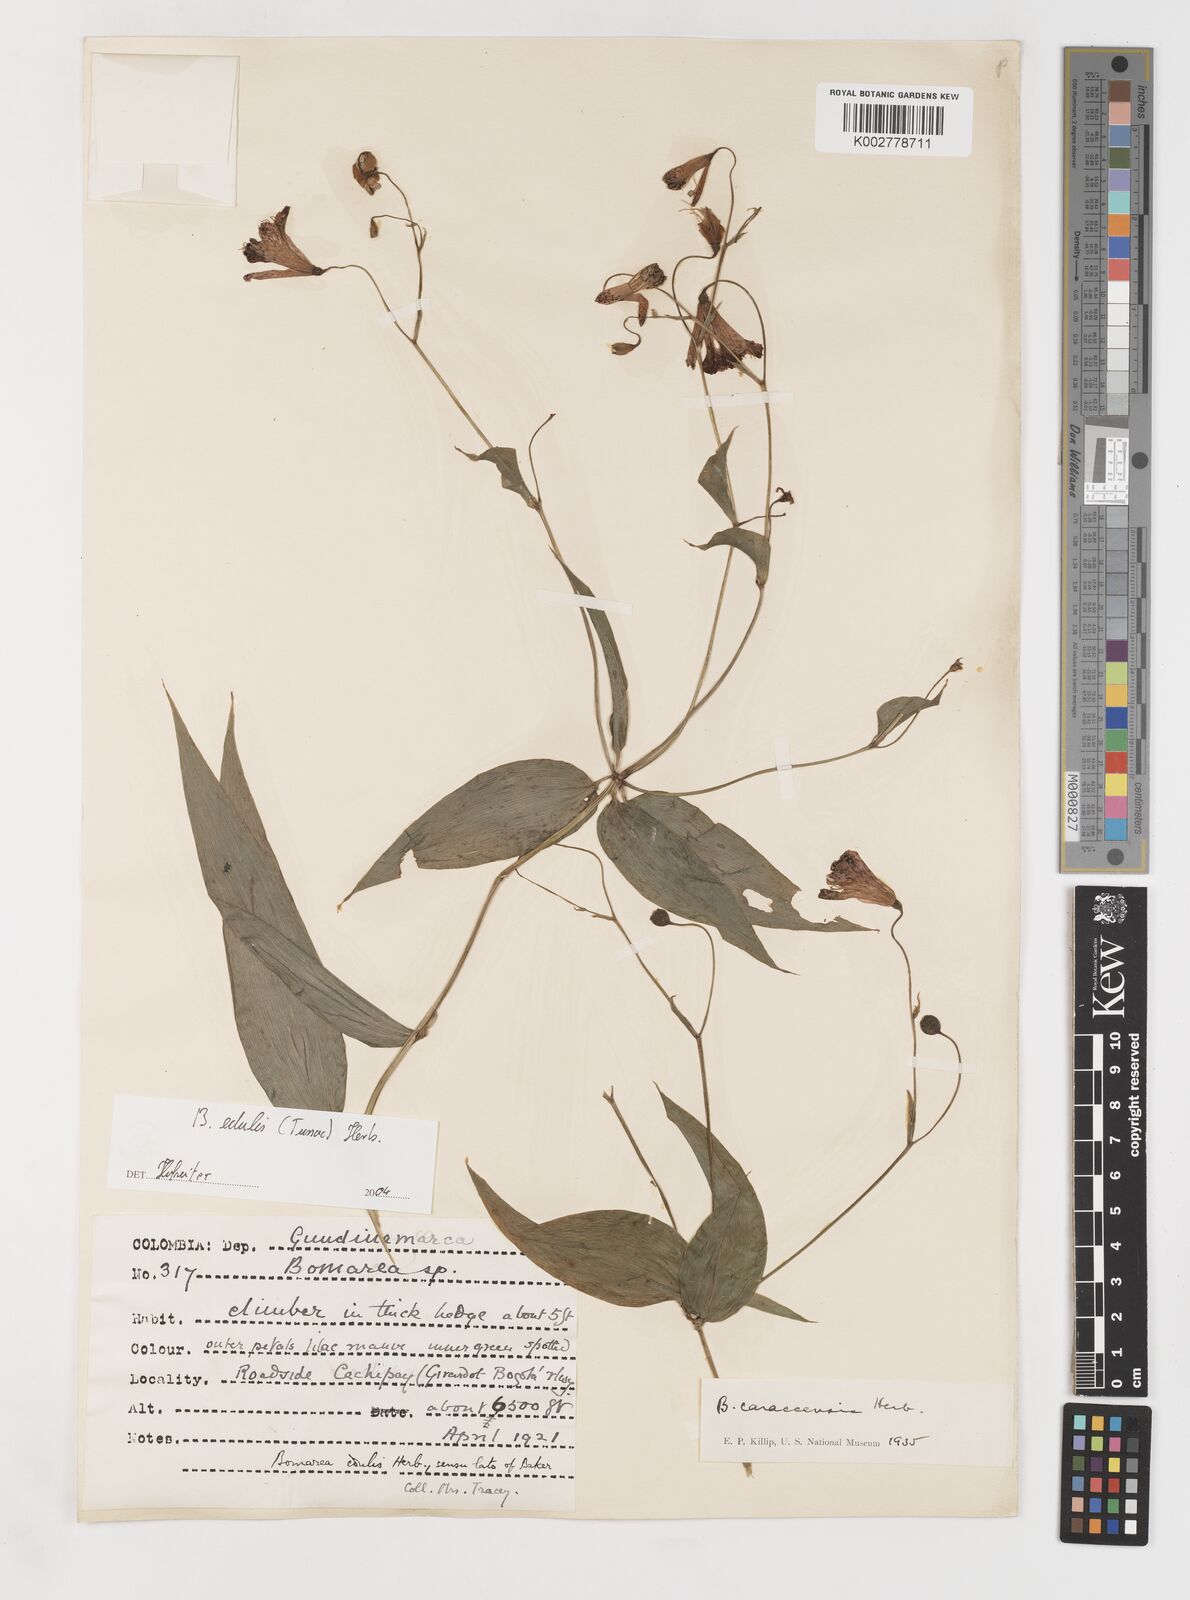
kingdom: Plantae
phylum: Tracheophyta
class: Liliopsida
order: Liliales
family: Alstroemeriaceae
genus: Bomarea
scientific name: Bomarea edulis
